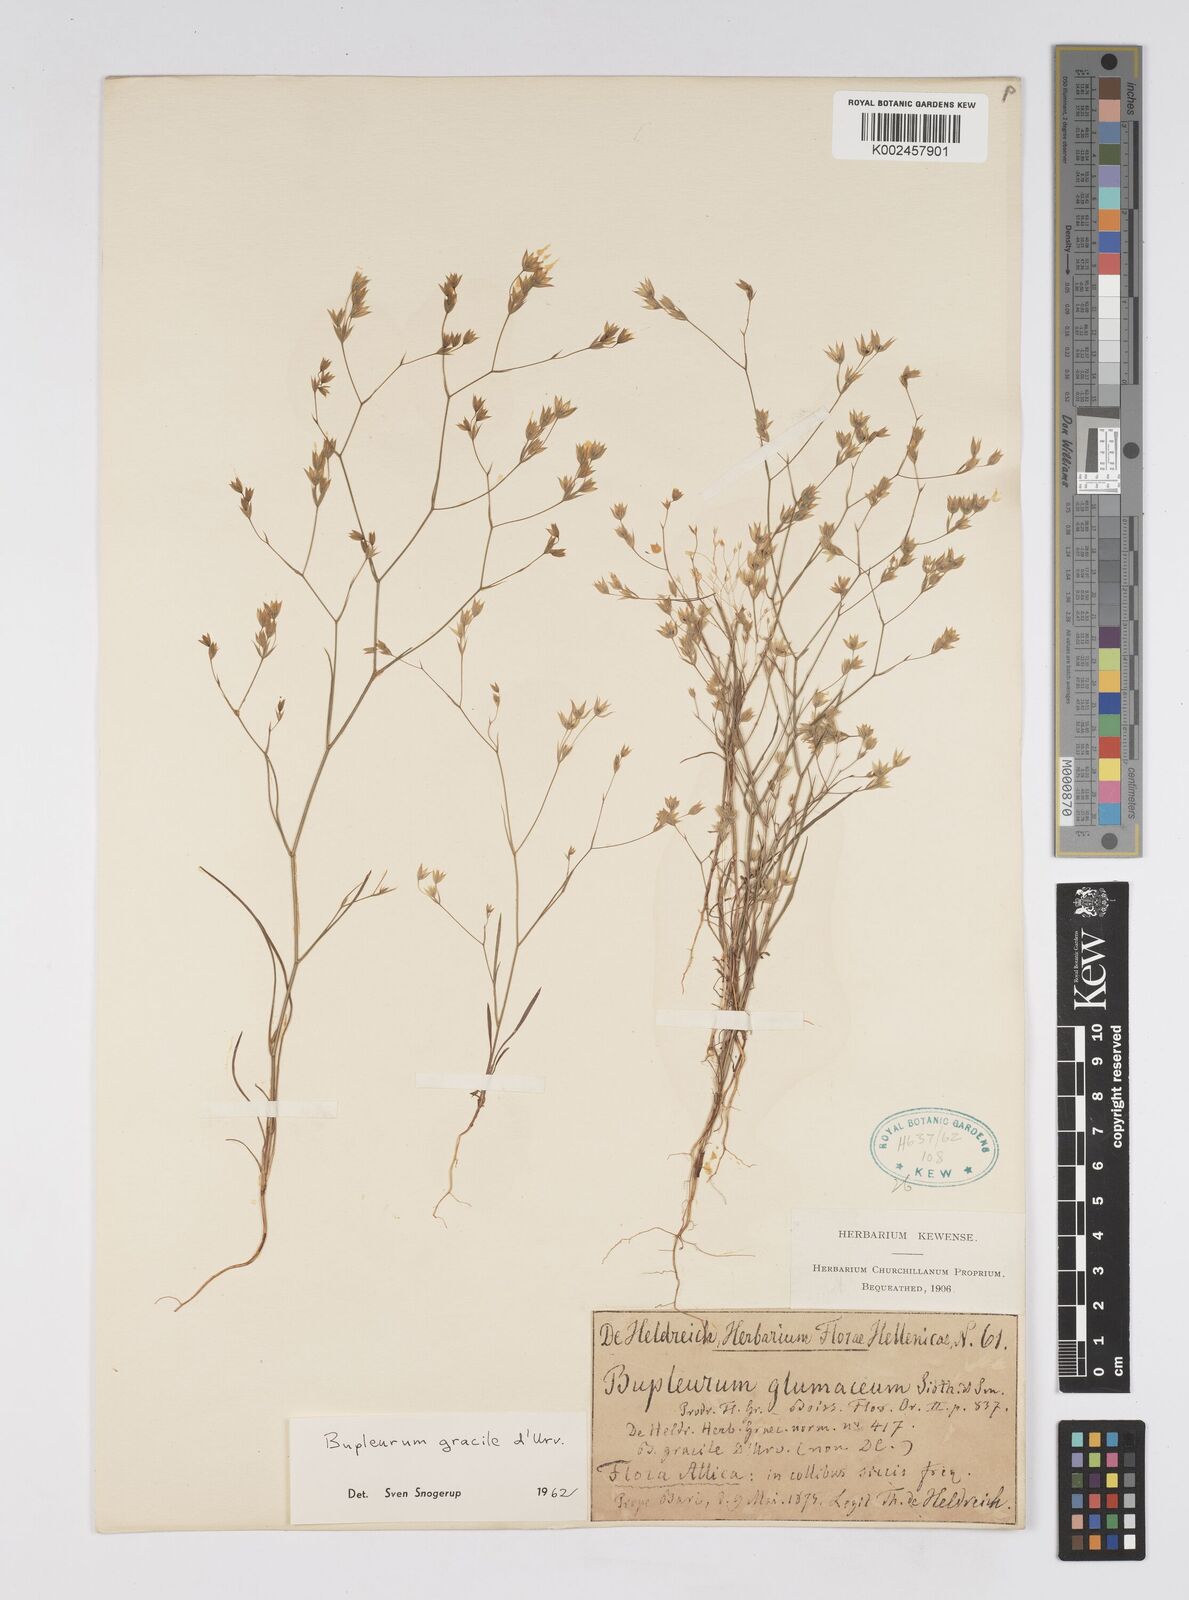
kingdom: Plantae
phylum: Tracheophyta
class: Magnoliopsida
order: Apiales
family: Apiaceae
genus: Bupleurum
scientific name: Bupleurum gracile
